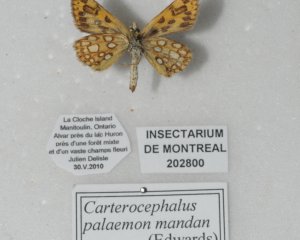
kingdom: Animalia
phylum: Arthropoda
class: Insecta
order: Lepidoptera
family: Hesperiidae
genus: Carterocephalus
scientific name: Carterocephalus palaemon
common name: Chequered Skipper
